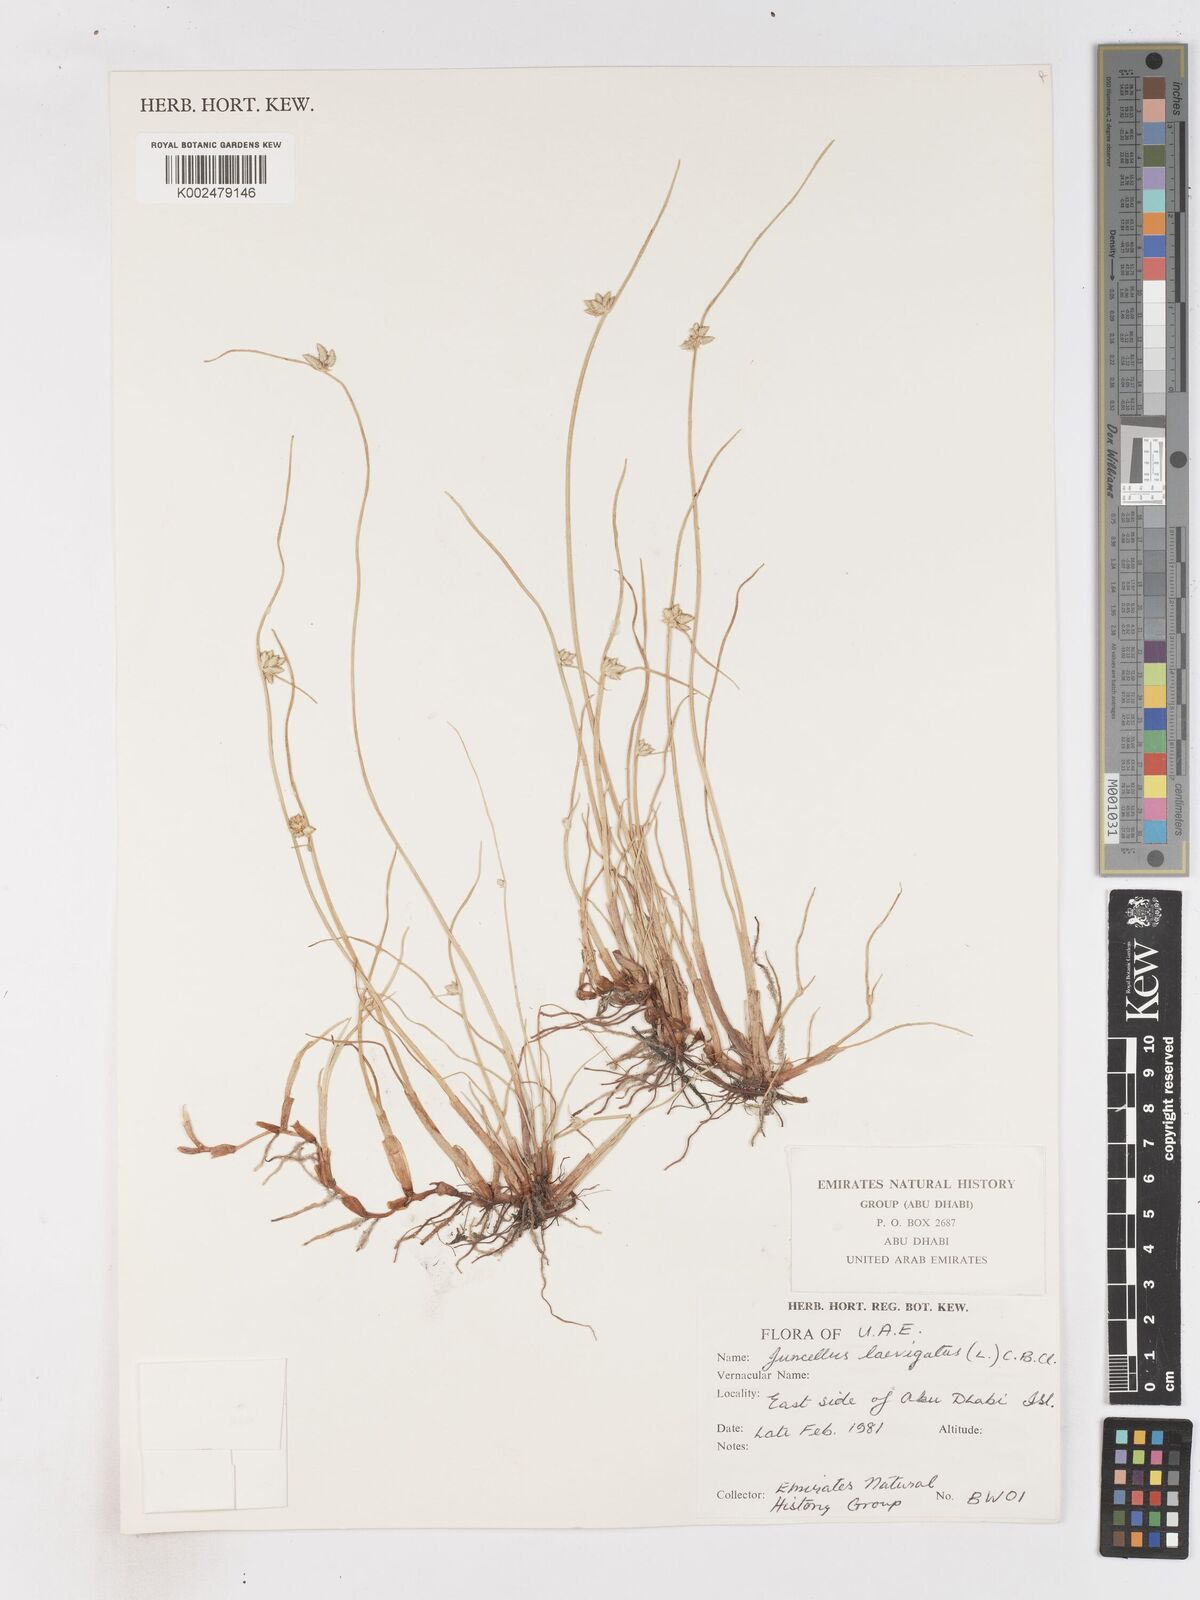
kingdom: Plantae
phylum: Tracheophyta
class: Liliopsida
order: Poales
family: Cyperaceae
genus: Cyperus
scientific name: Cyperus laevigatus
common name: Smooth flat sedge
